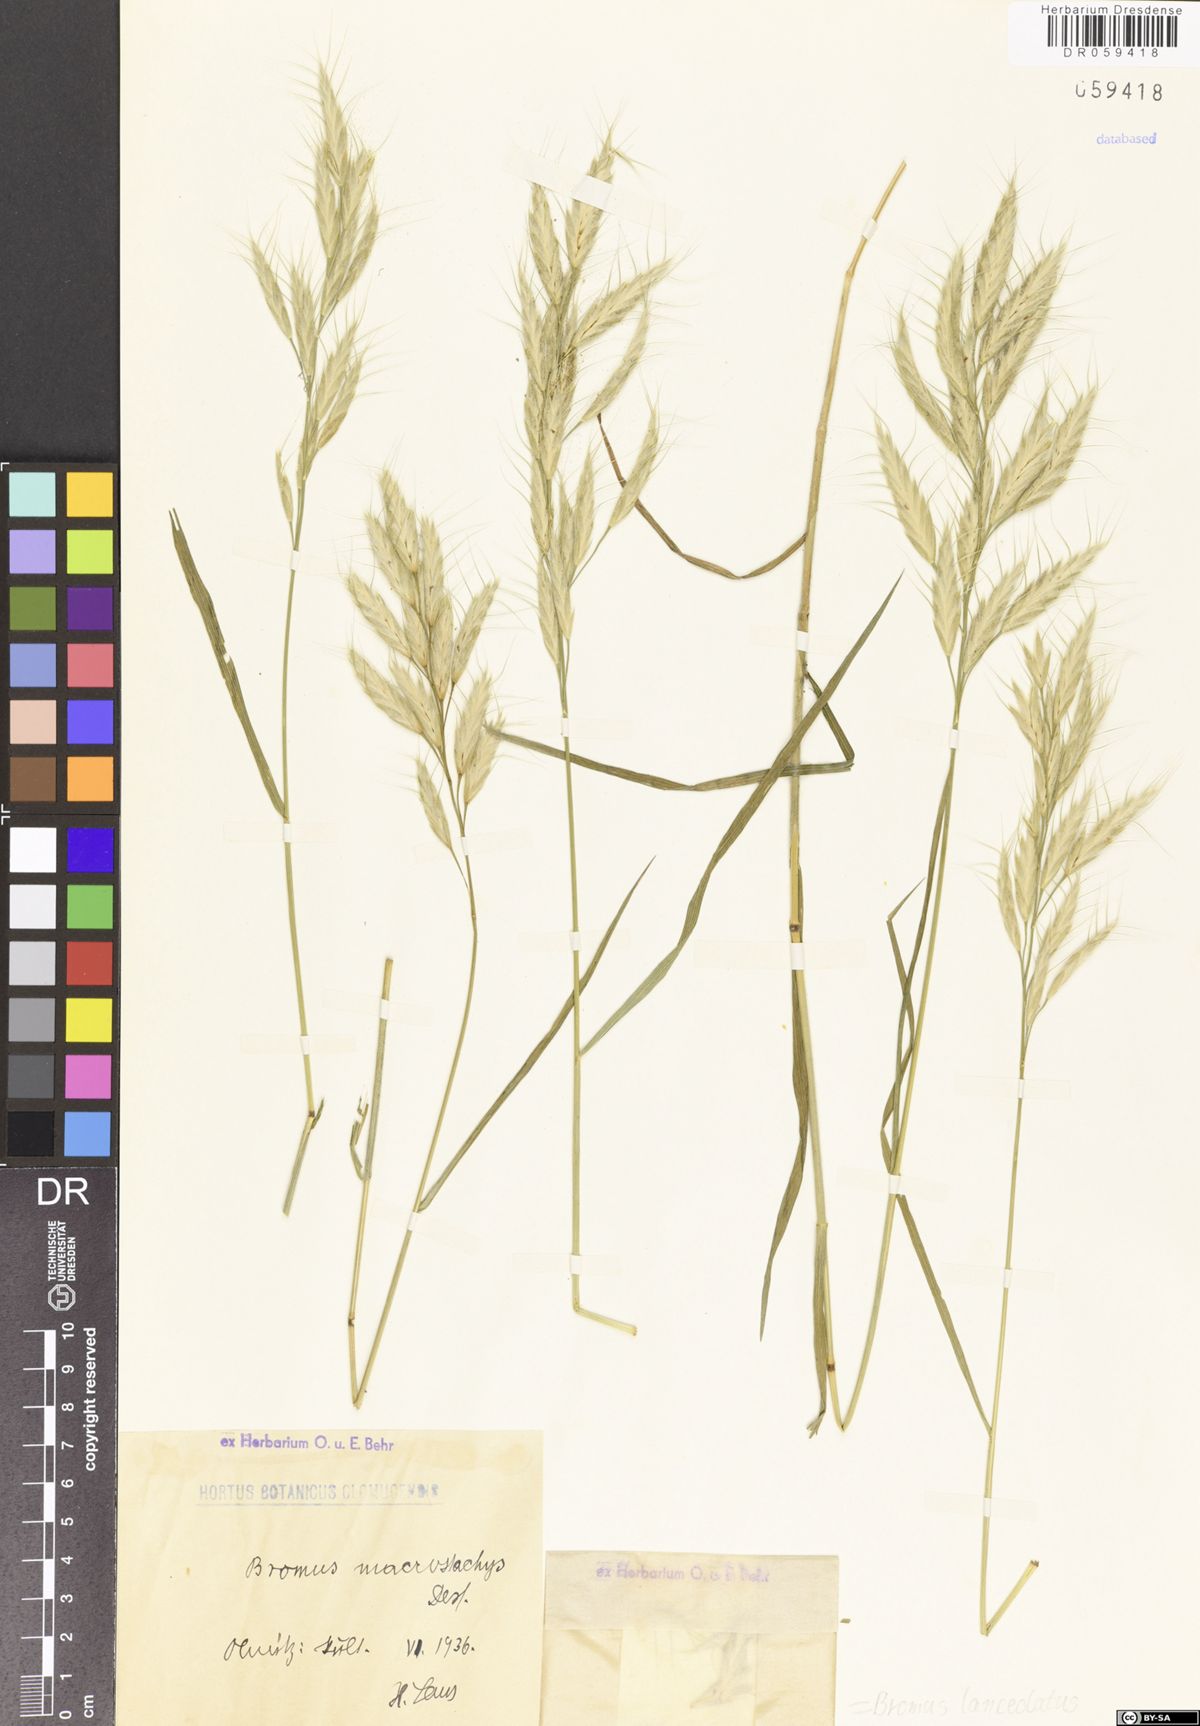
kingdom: Plantae
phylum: Tracheophyta
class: Liliopsida
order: Poales
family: Poaceae
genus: Bromus
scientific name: Bromus lanceolatus
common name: Mediterranean brome
